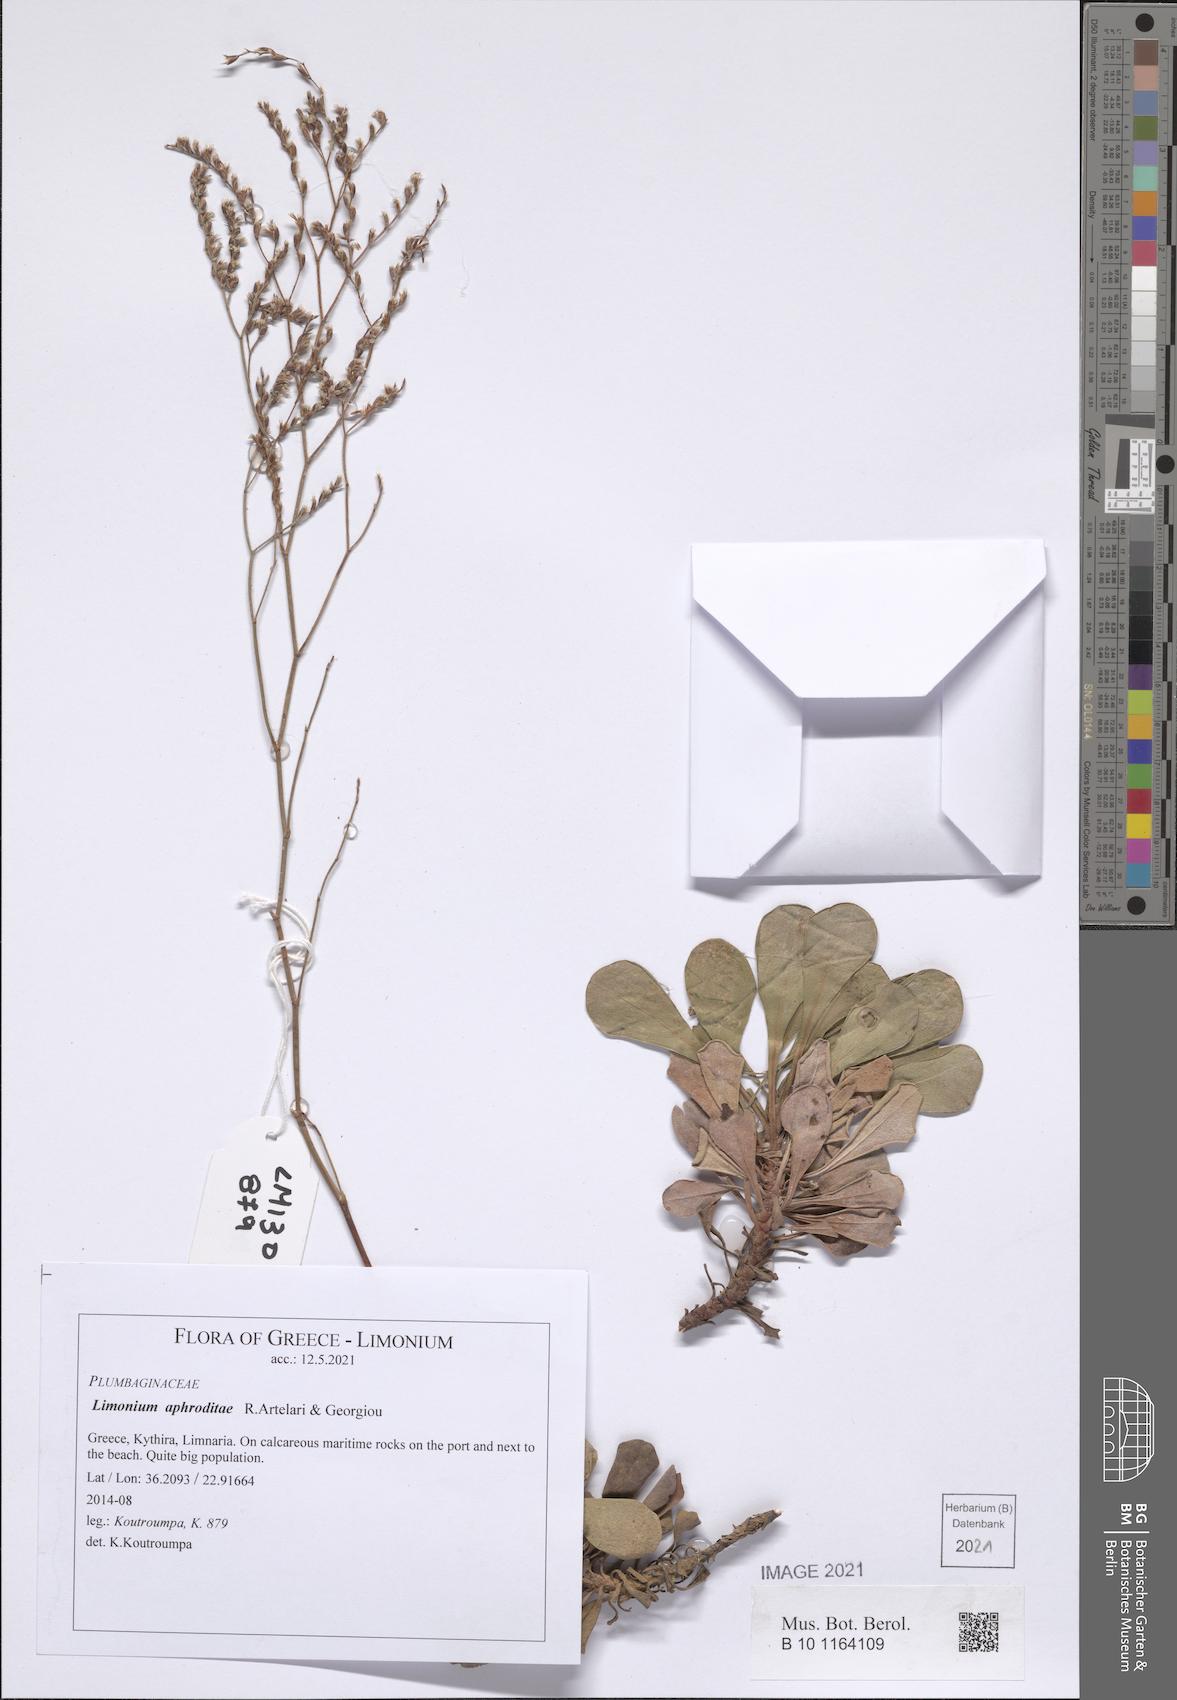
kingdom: Plantae
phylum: Tracheophyta
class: Magnoliopsida
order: Caryophyllales
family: Plumbaginaceae
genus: Limonium
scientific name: Limonium aphroditae
